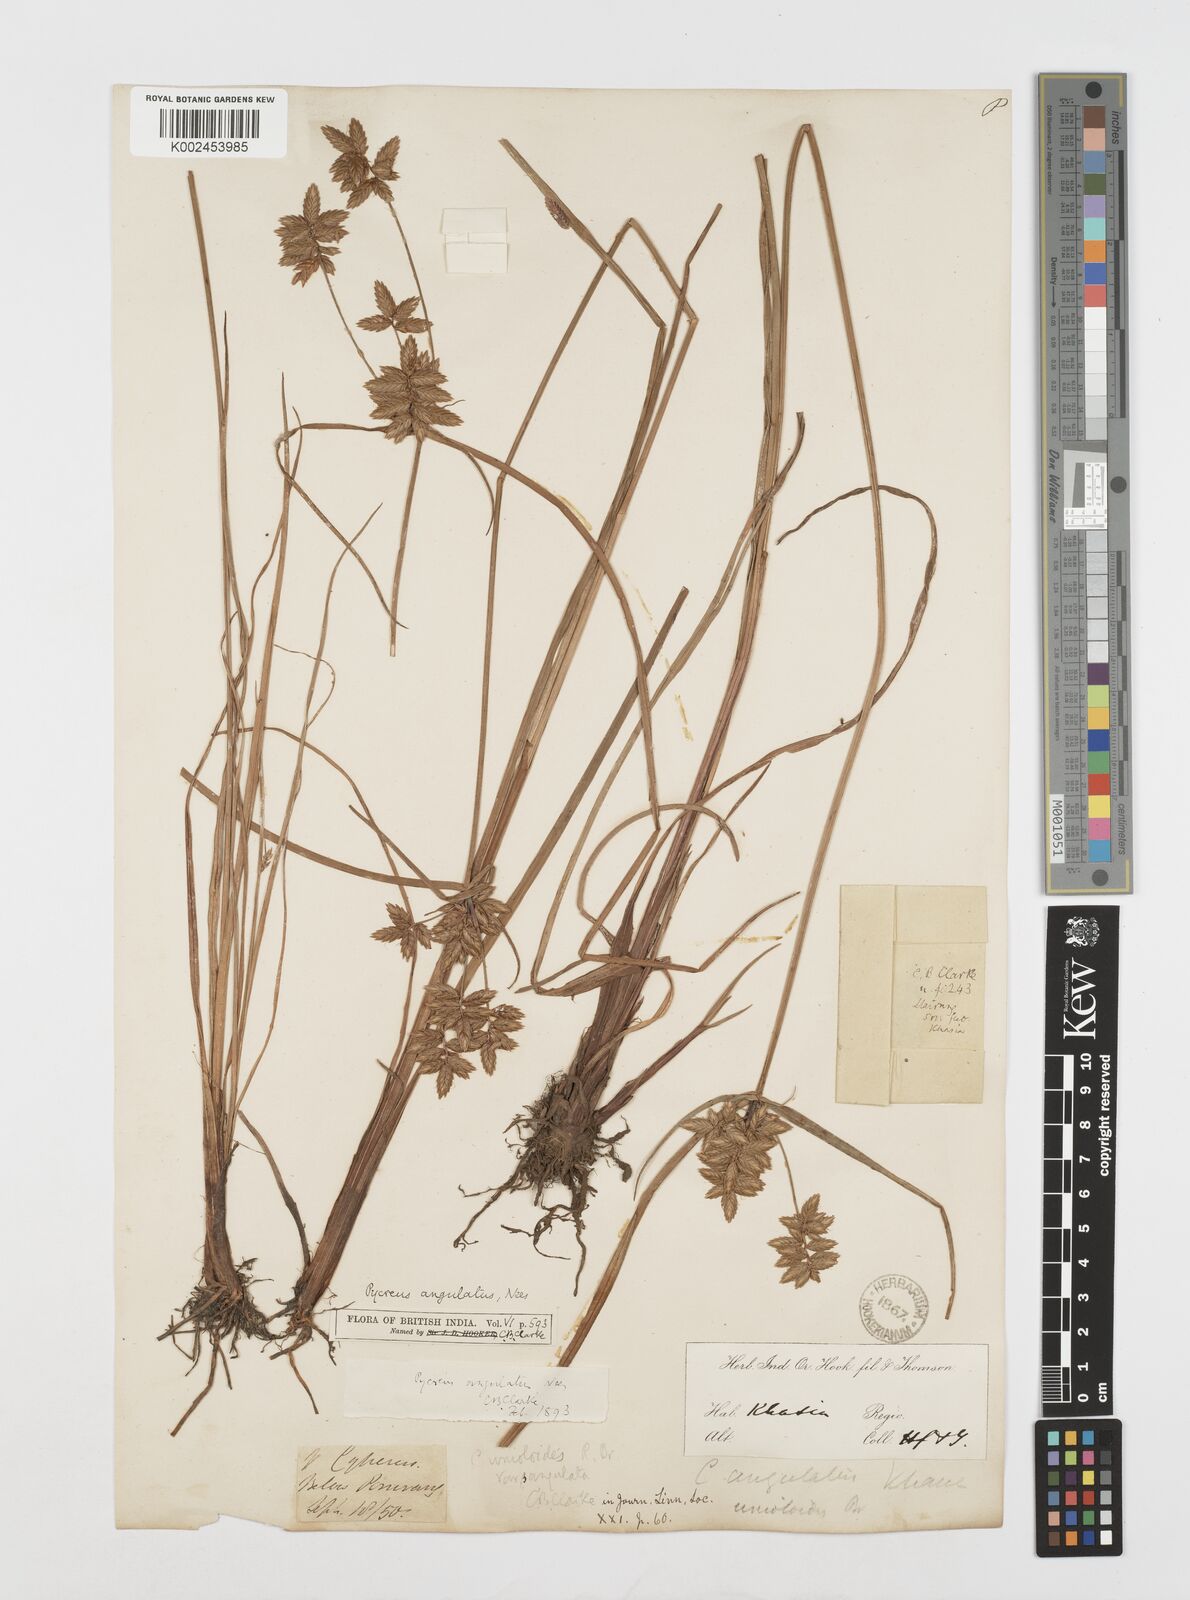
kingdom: Plantae
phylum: Tracheophyta
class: Liliopsida
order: Poales
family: Cyperaceae
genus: Cyperus
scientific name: Cyperus unioloides
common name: Uniola flatsedge
